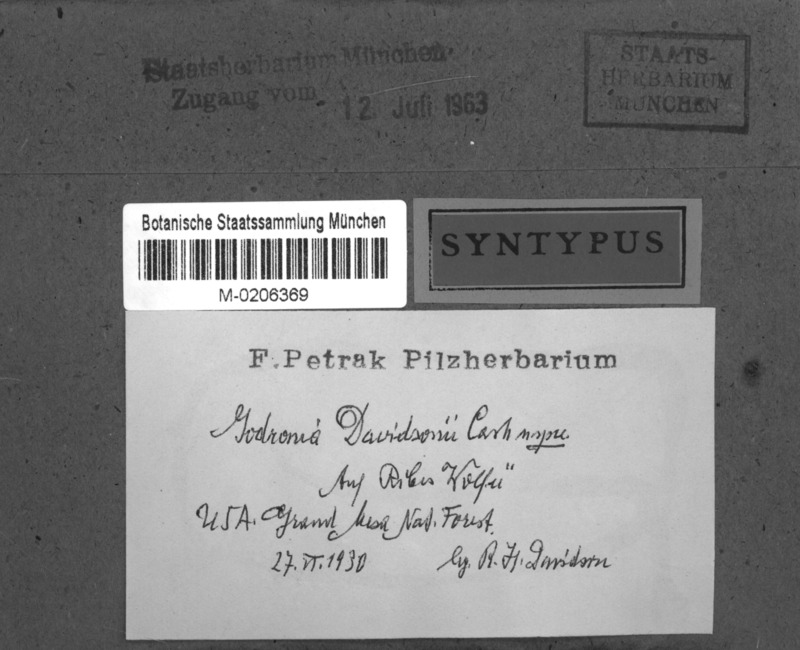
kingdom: Fungi
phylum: Ascomycota
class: Leotiomycetes
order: Helotiales
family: Godroniaceae
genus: Godronia
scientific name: Godronia davidsonii
